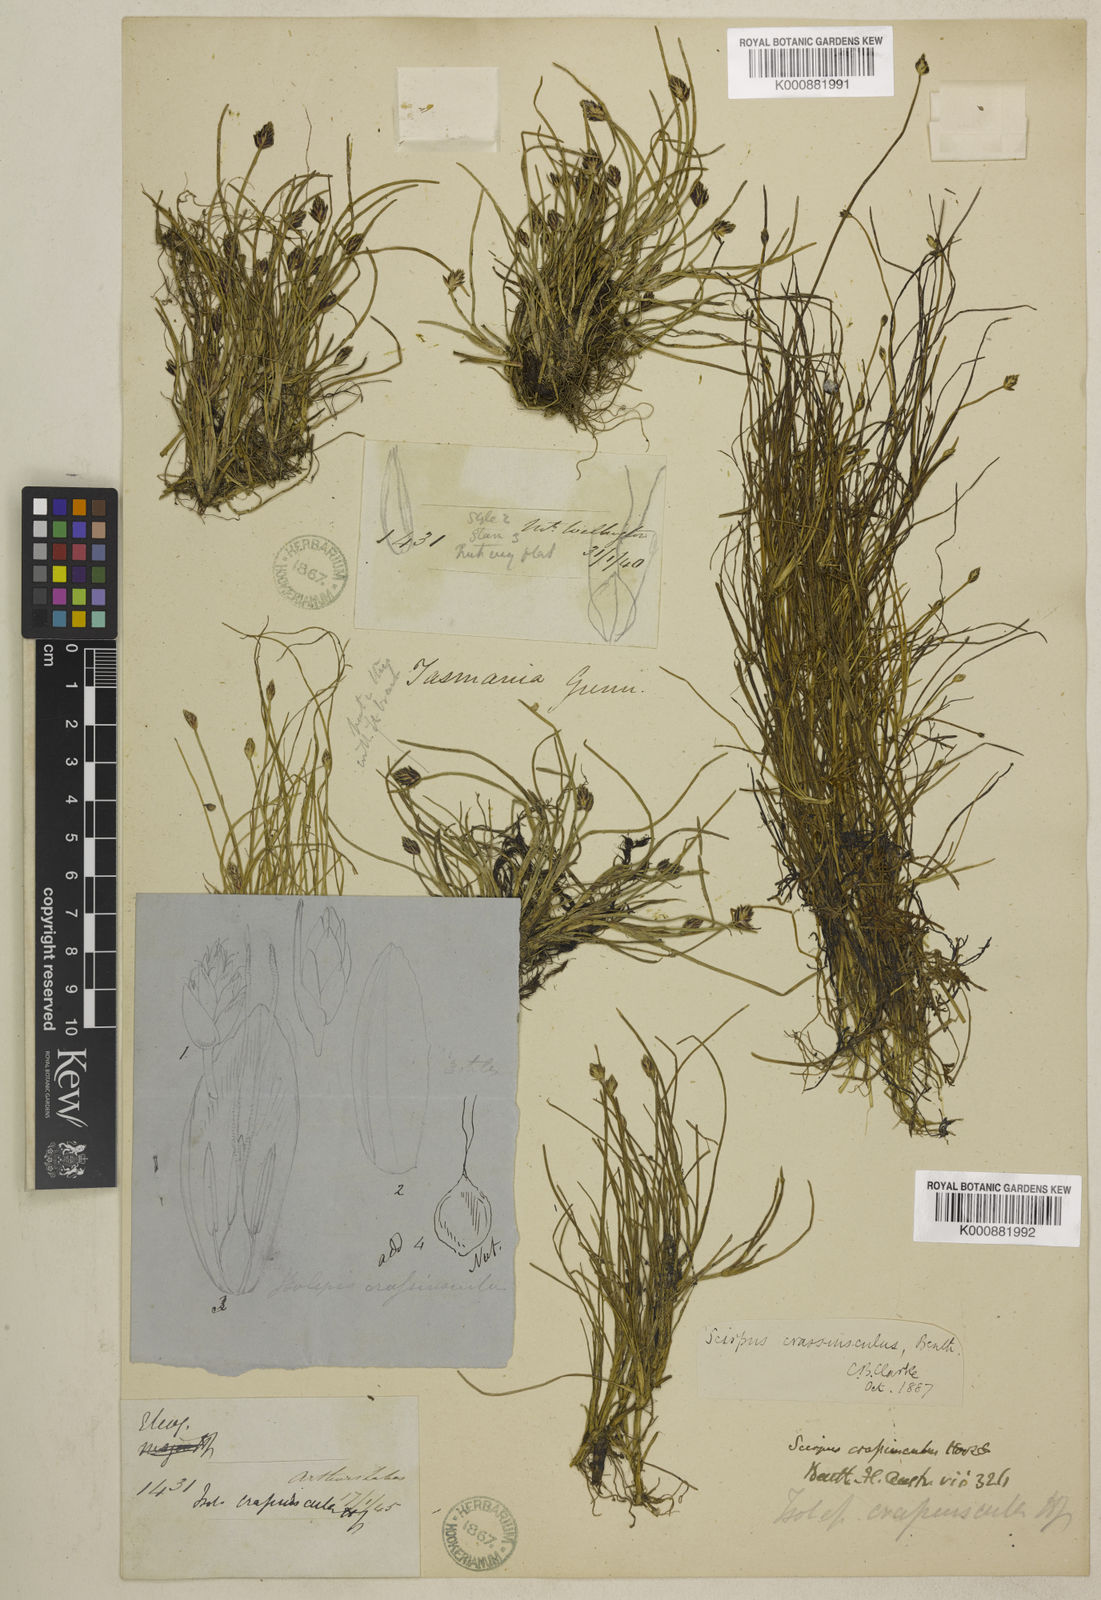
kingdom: Plantae
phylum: Tracheophyta
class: Liliopsida
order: Poales
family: Cyperaceae
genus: Isolepis
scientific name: Isolepis crassiuscula
